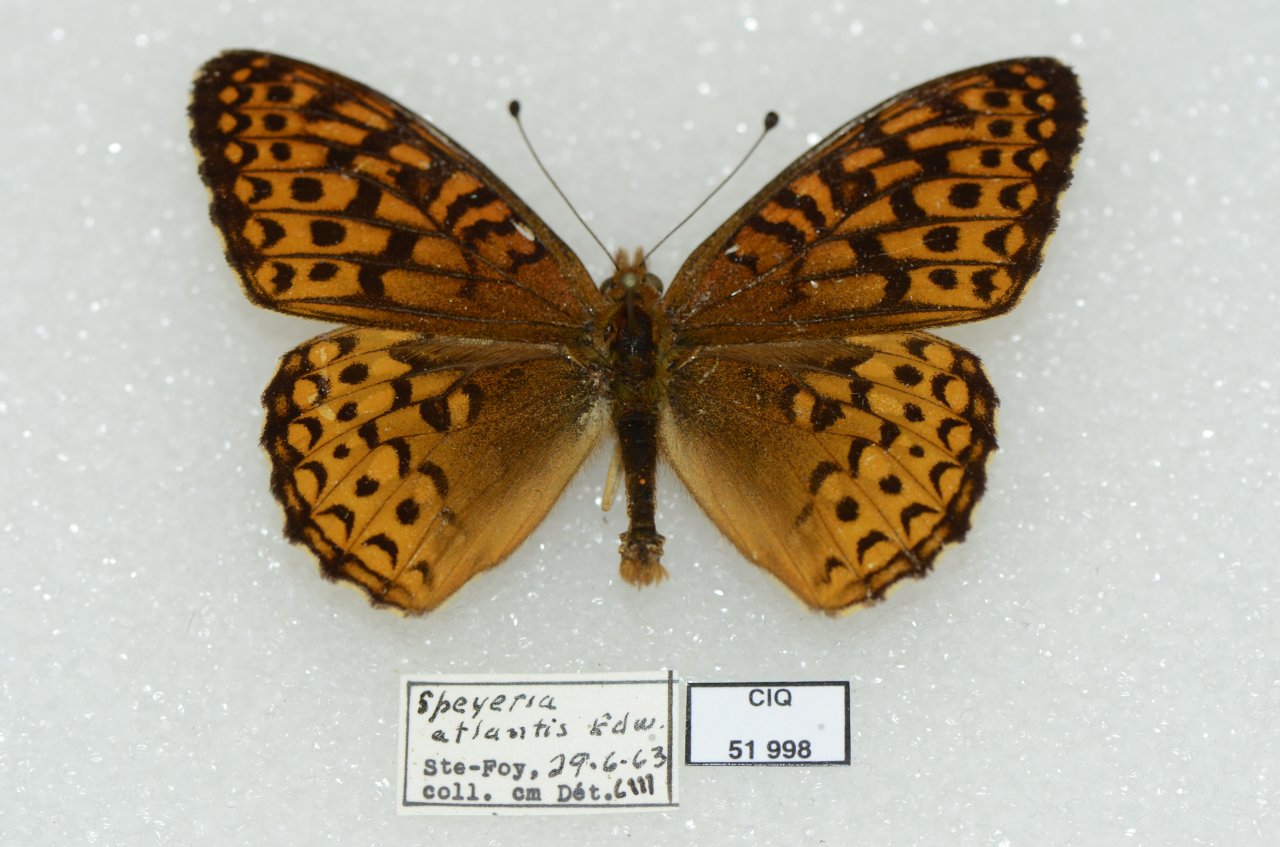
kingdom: Animalia
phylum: Arthropoda
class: Insecta
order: Lepidoptera
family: Nymphalidae
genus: Speyeria
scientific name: Speyeria atlantis
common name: Atlantis Fritillary
